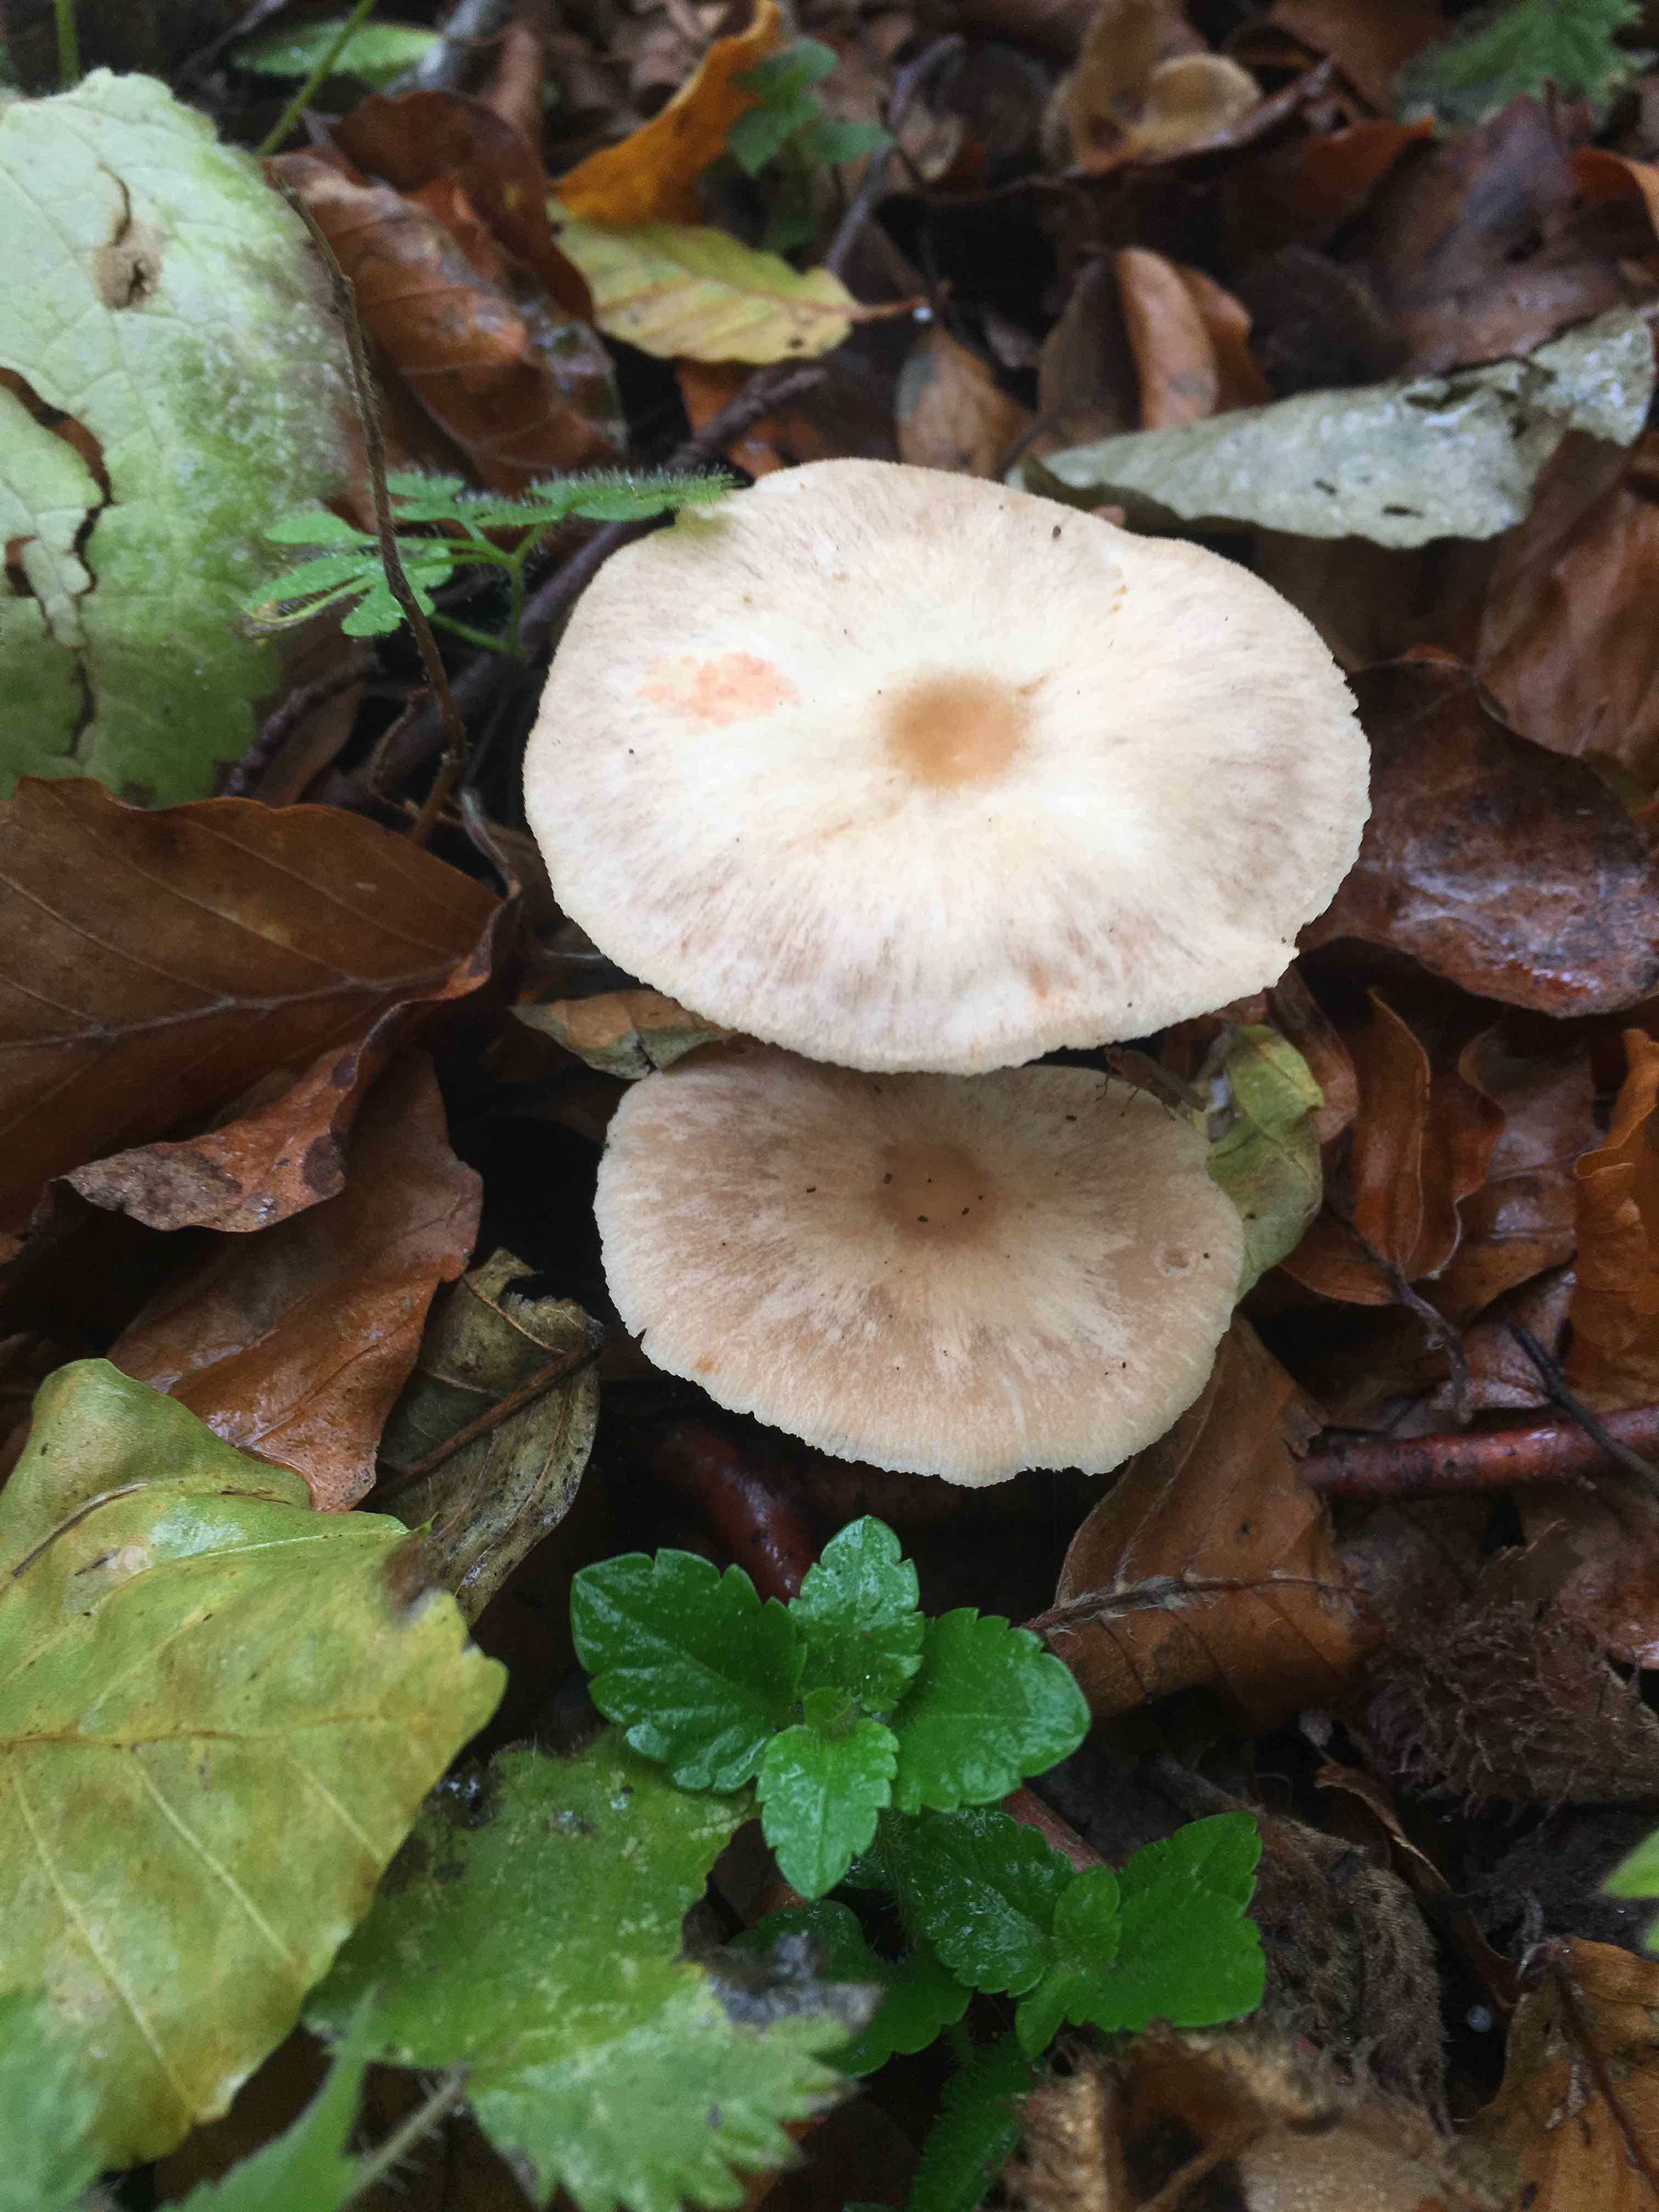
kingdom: Fungi
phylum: Basidiomycota
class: Agaricomycetes
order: Agaricales
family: Omphalotaceae
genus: Gymnopus
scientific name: Gymnopus
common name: fladhat
